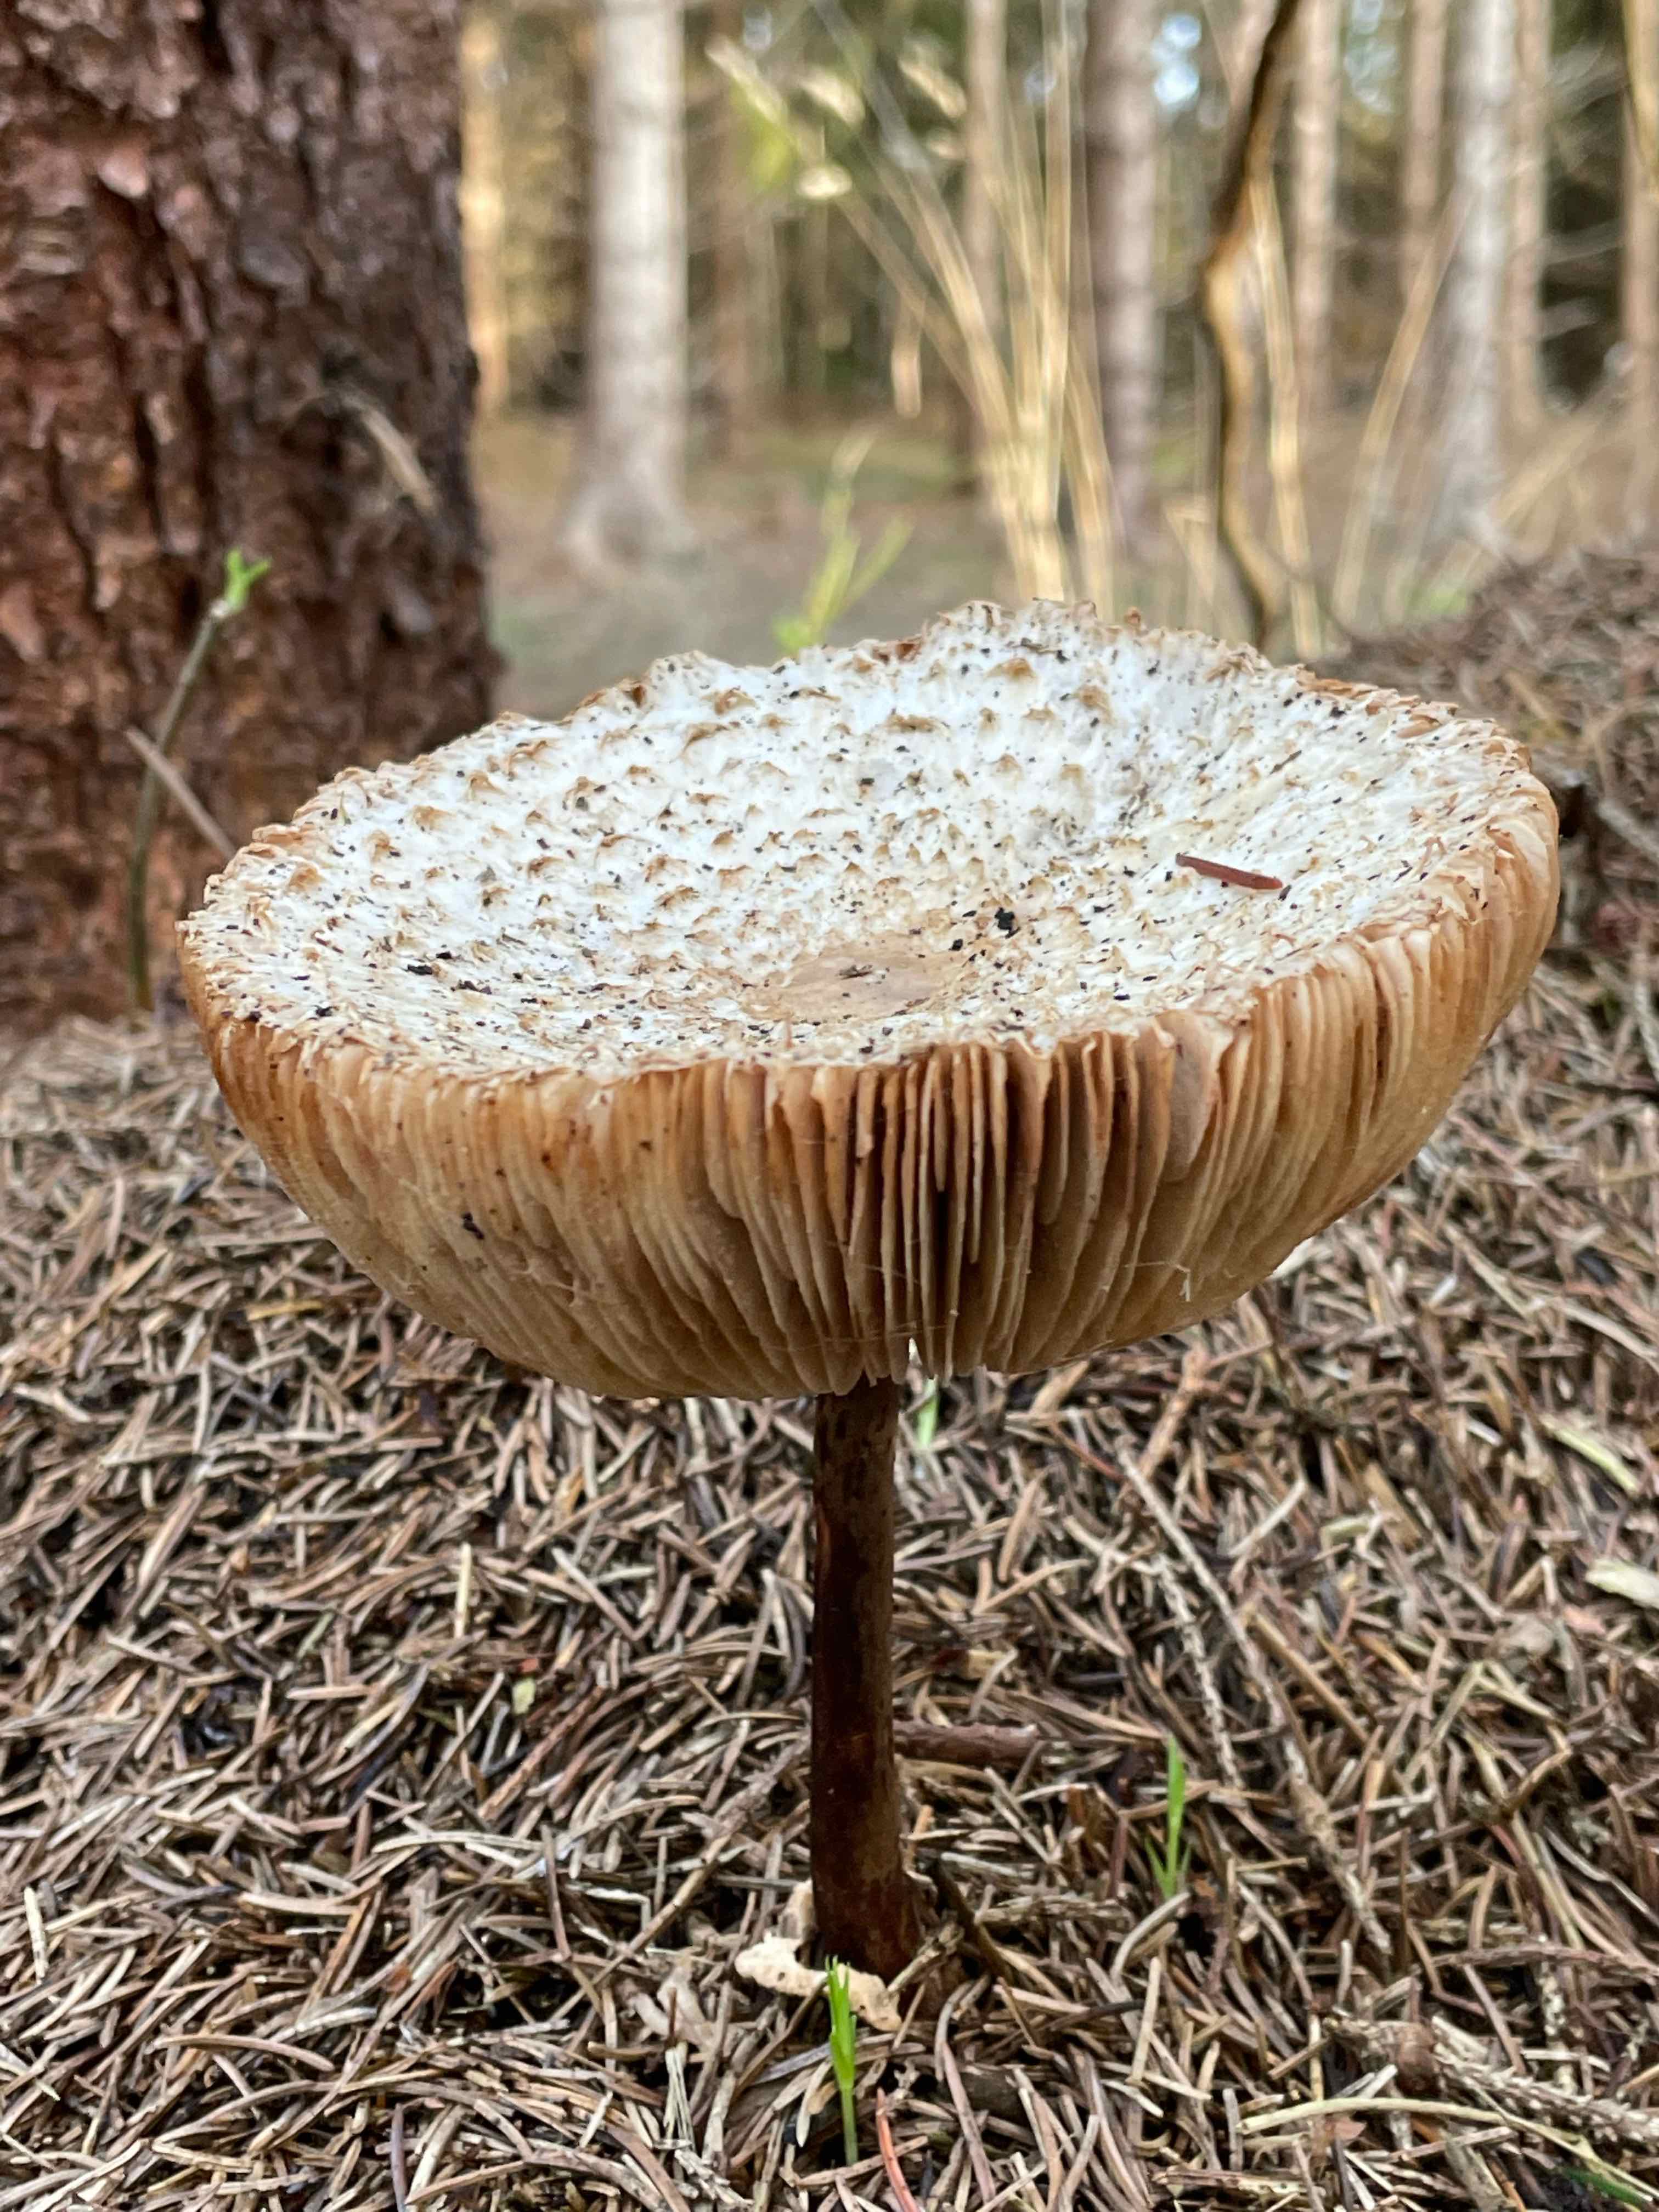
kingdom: Fungi
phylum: Basidiomycota
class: Agaricomycetes
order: Agaricales
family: Agaricaceae
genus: Leucoagaricus
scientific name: Leucoagaricus nympharum
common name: gran-silkehat
